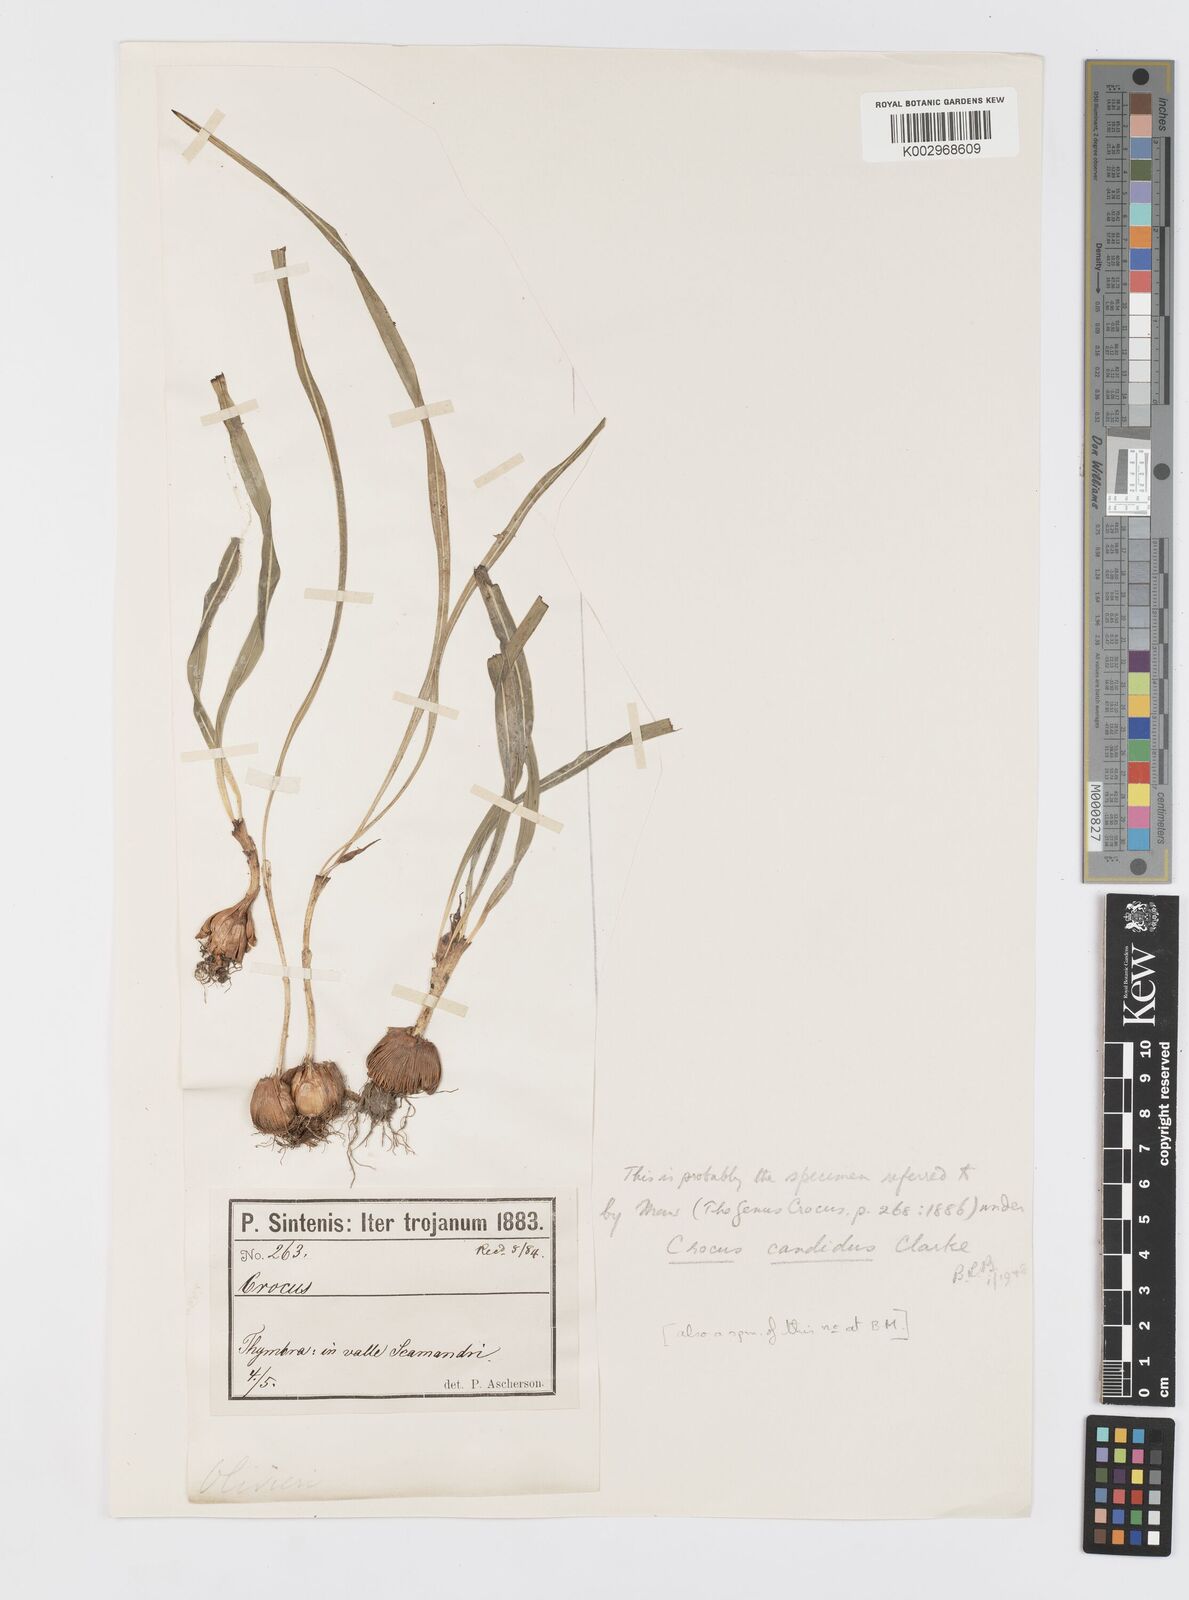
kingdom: Plantae
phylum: Tracheophyta
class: Liliopsida
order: Asparagales
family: Iridaceae
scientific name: Iridaceae
